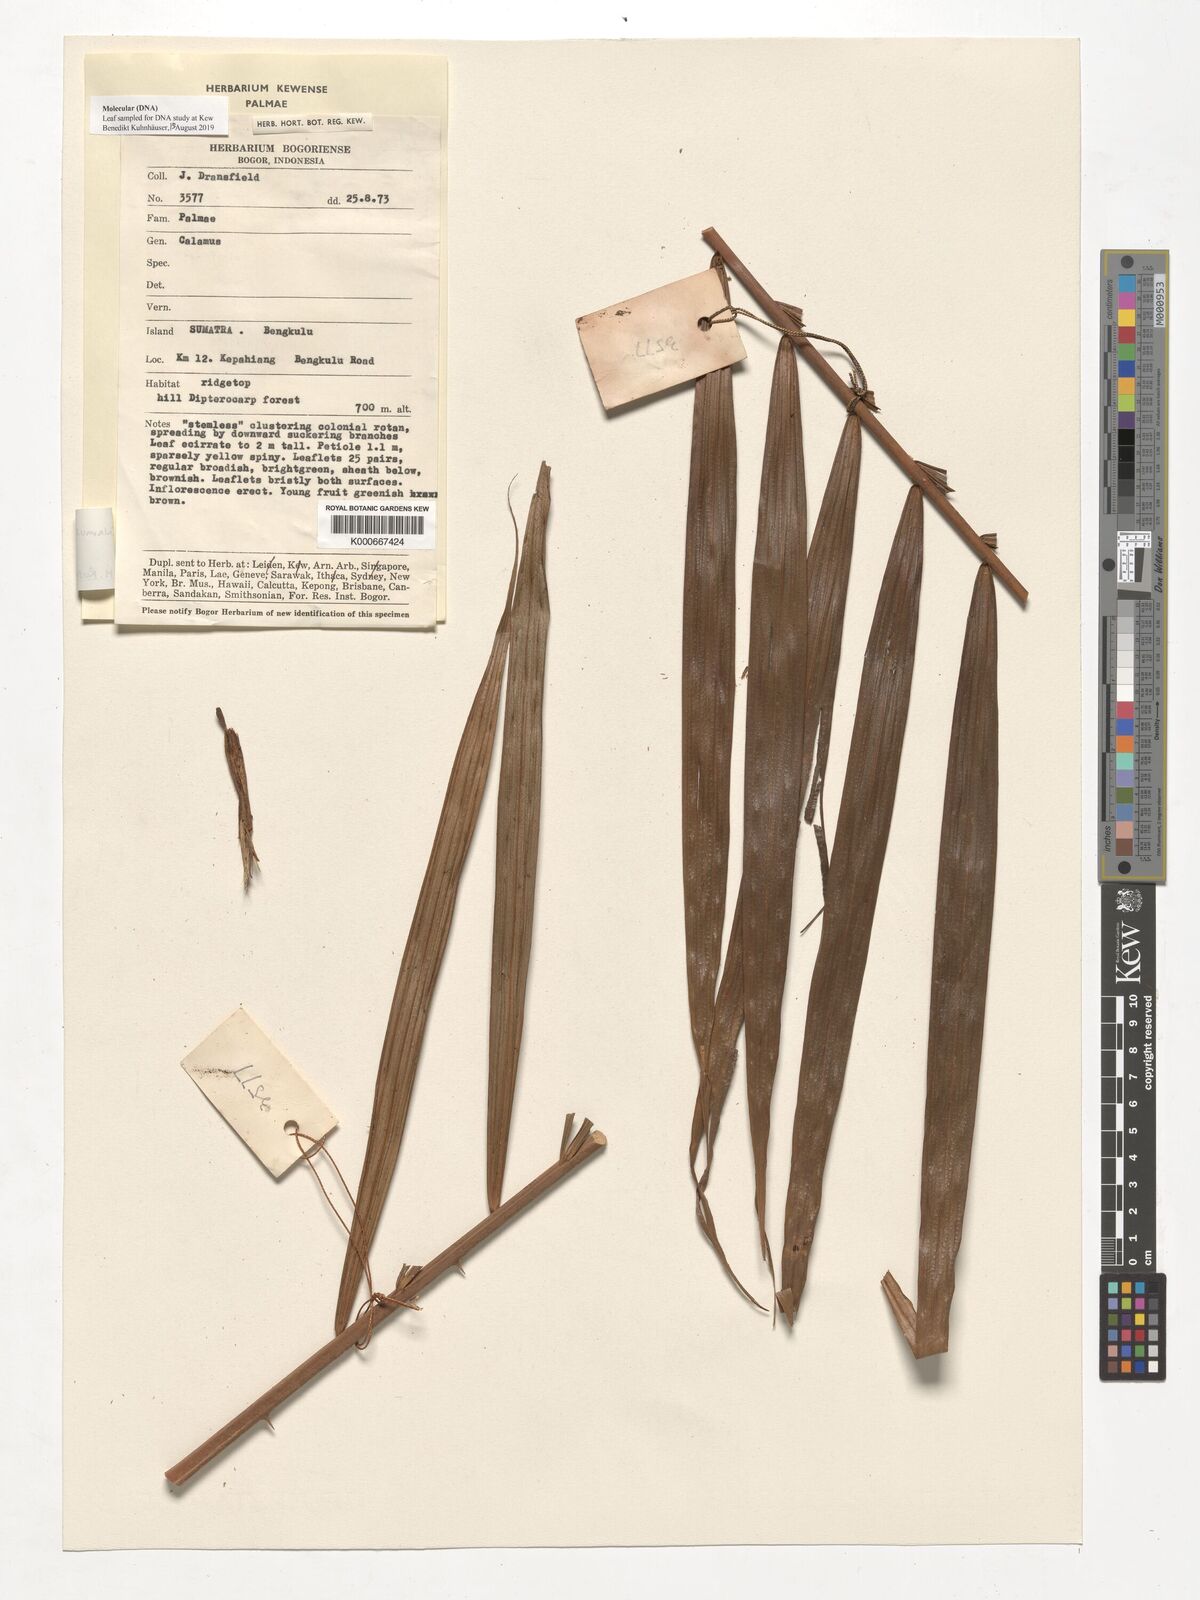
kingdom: Plantae
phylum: Tracheophyta
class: Liliopsida
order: Arecales
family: Arecaceae
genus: Calamus
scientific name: Calamus subsolanus
